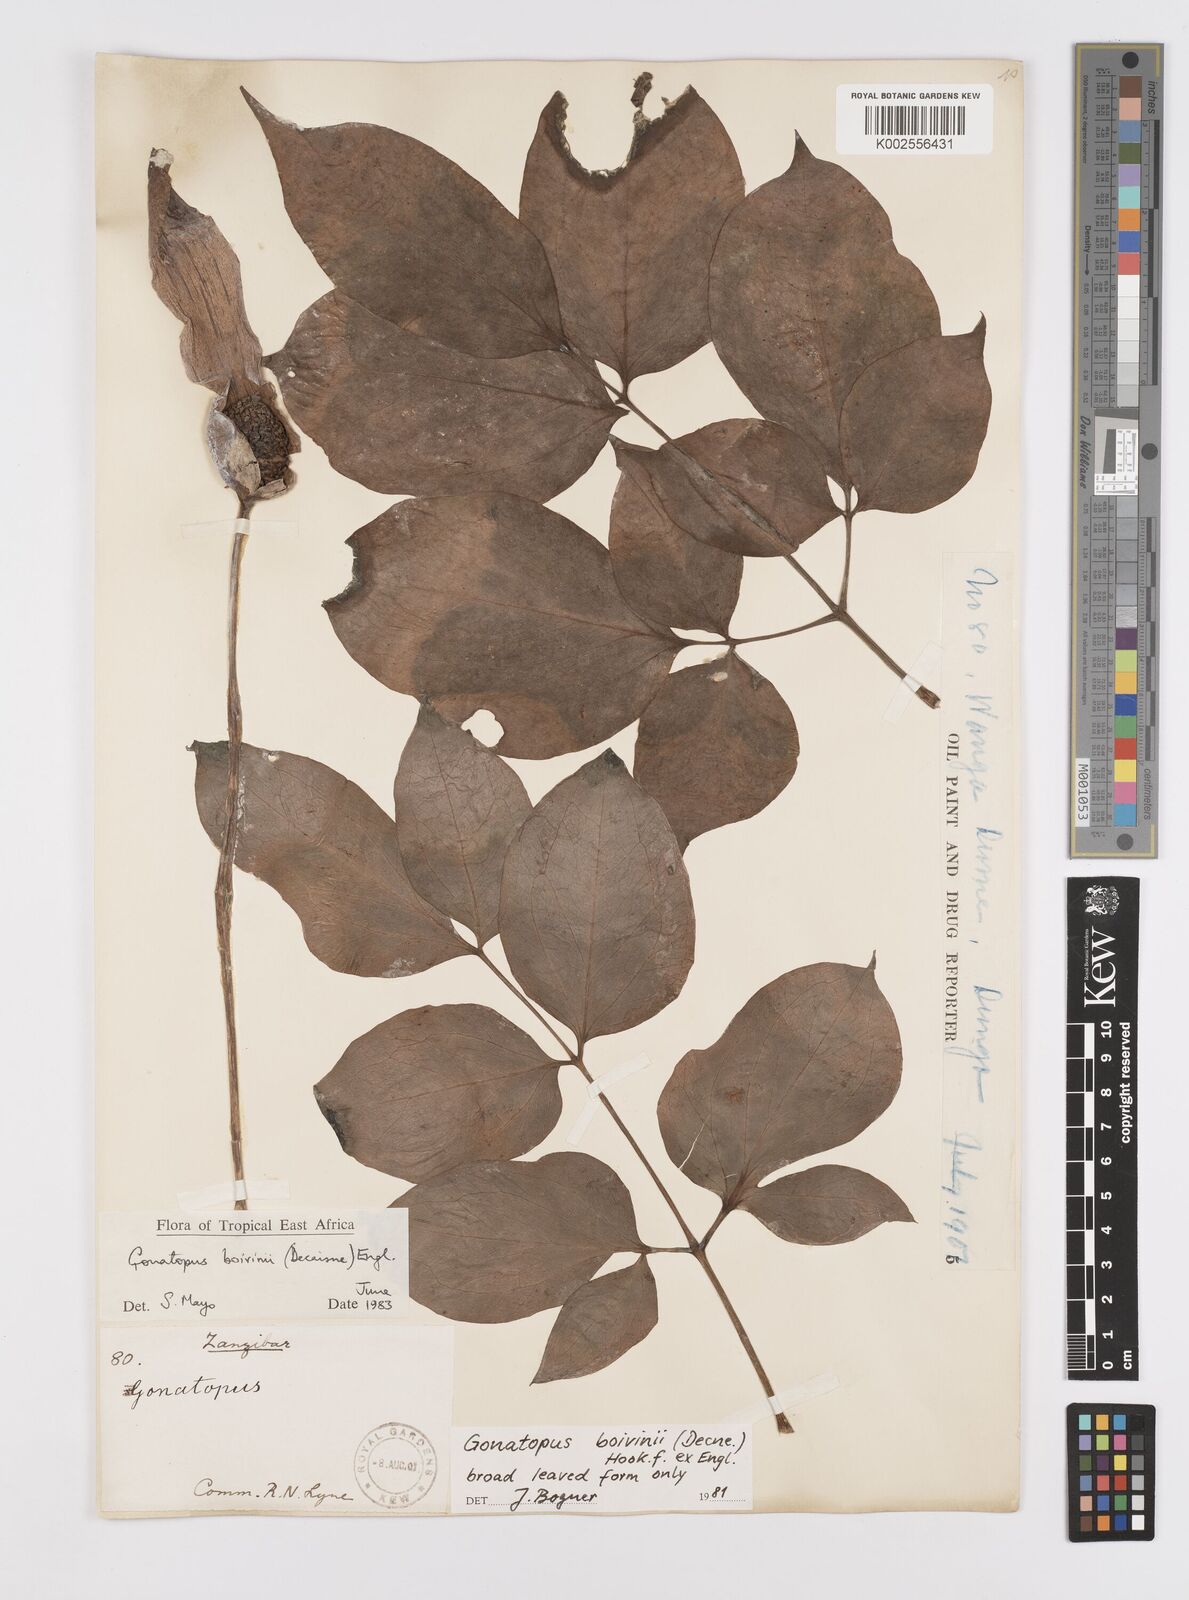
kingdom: Plantae
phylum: Tracheophyta
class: Liliopsida
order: Alismatales
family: Araceae
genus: Gonatopus
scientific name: Gonatopus boivinii
